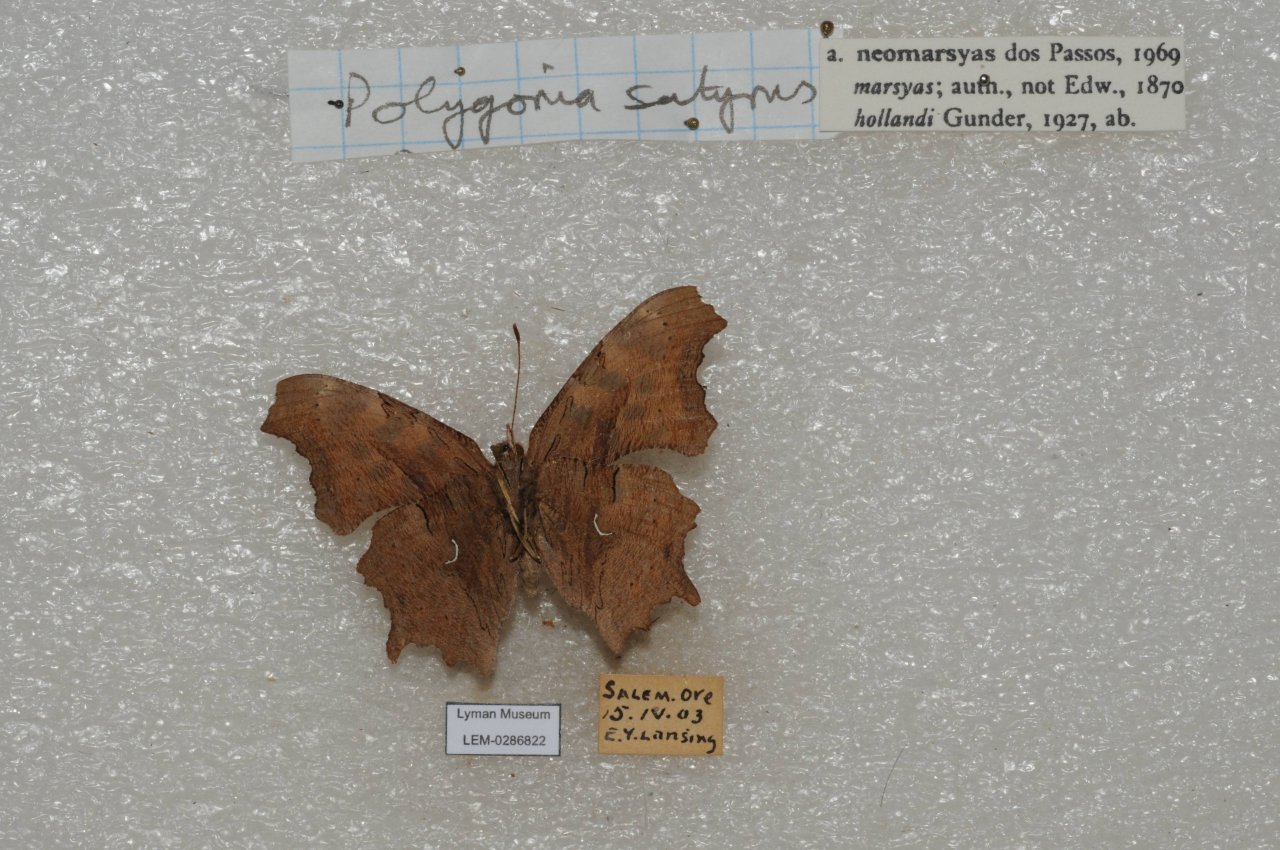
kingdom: Animalia
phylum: Arthropoda
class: Insecta
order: Lepidoptera
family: Nymphalidae
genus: Polygonia
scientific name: Polygonia satyrus
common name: Satyr Comma
